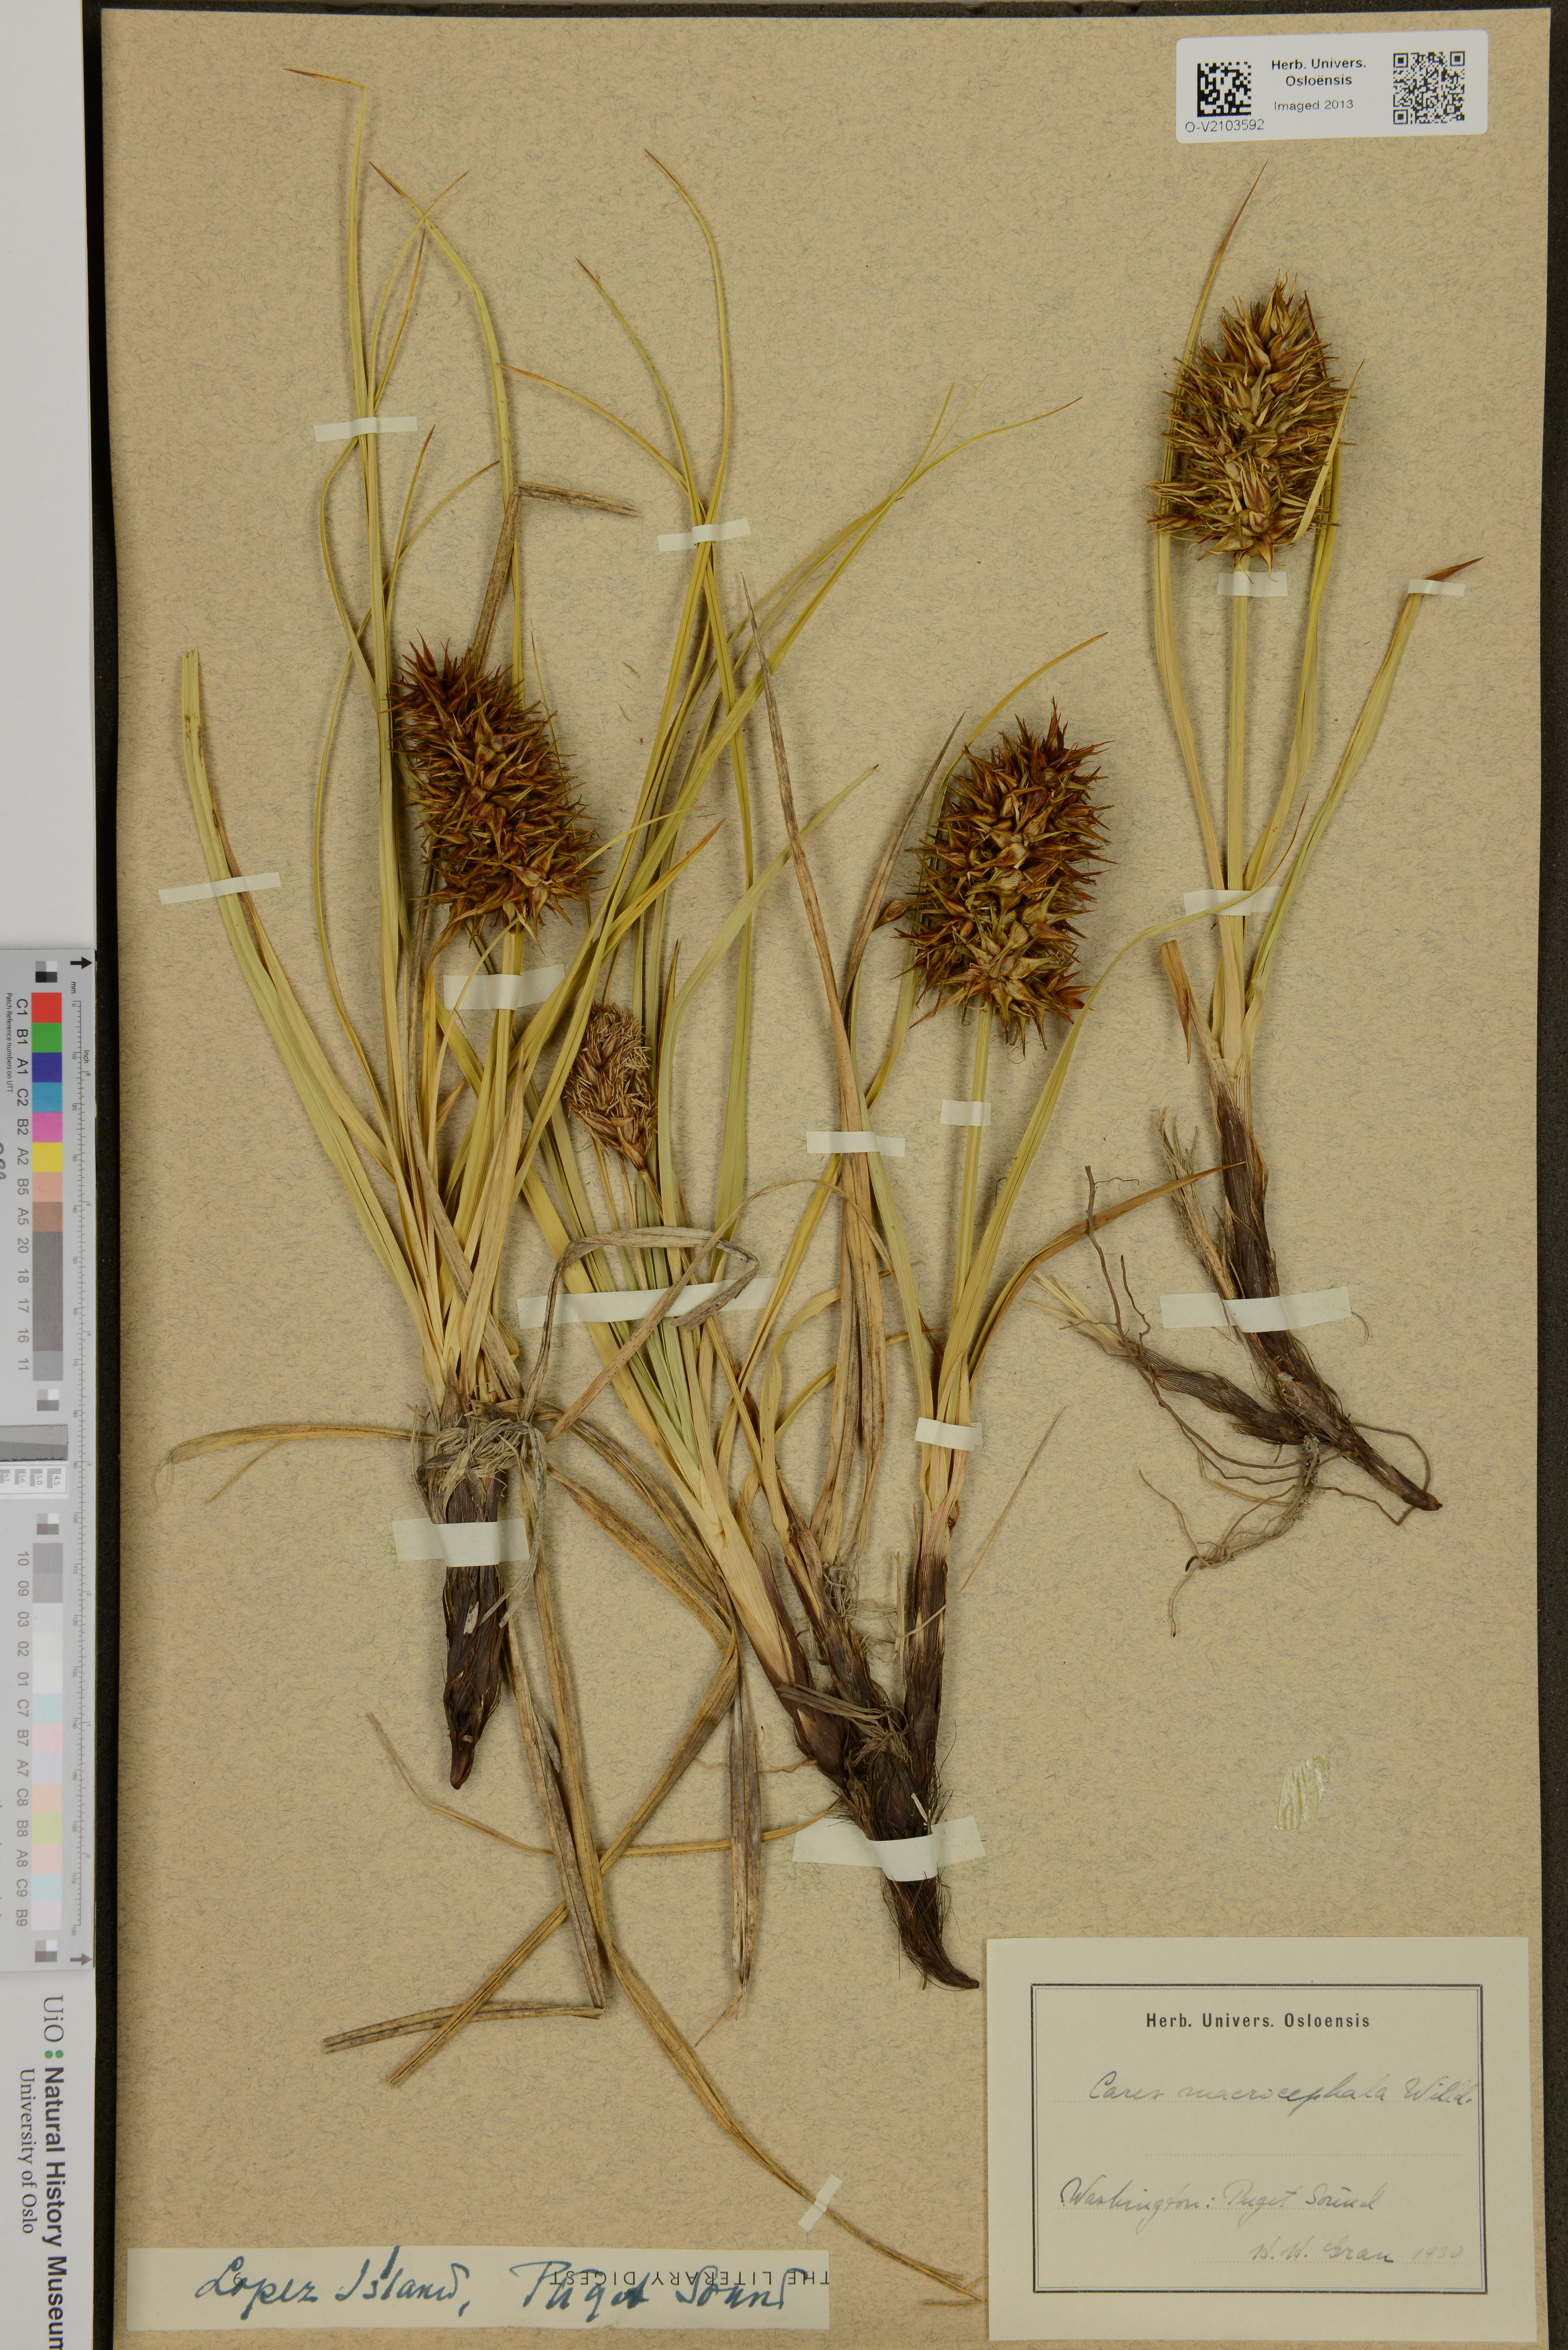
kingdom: Plantae
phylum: Tracheophyta
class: Liliopsida
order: Poales
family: Cyperaceae
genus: Carex
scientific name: Carex macrocephala
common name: Large-head sedge
